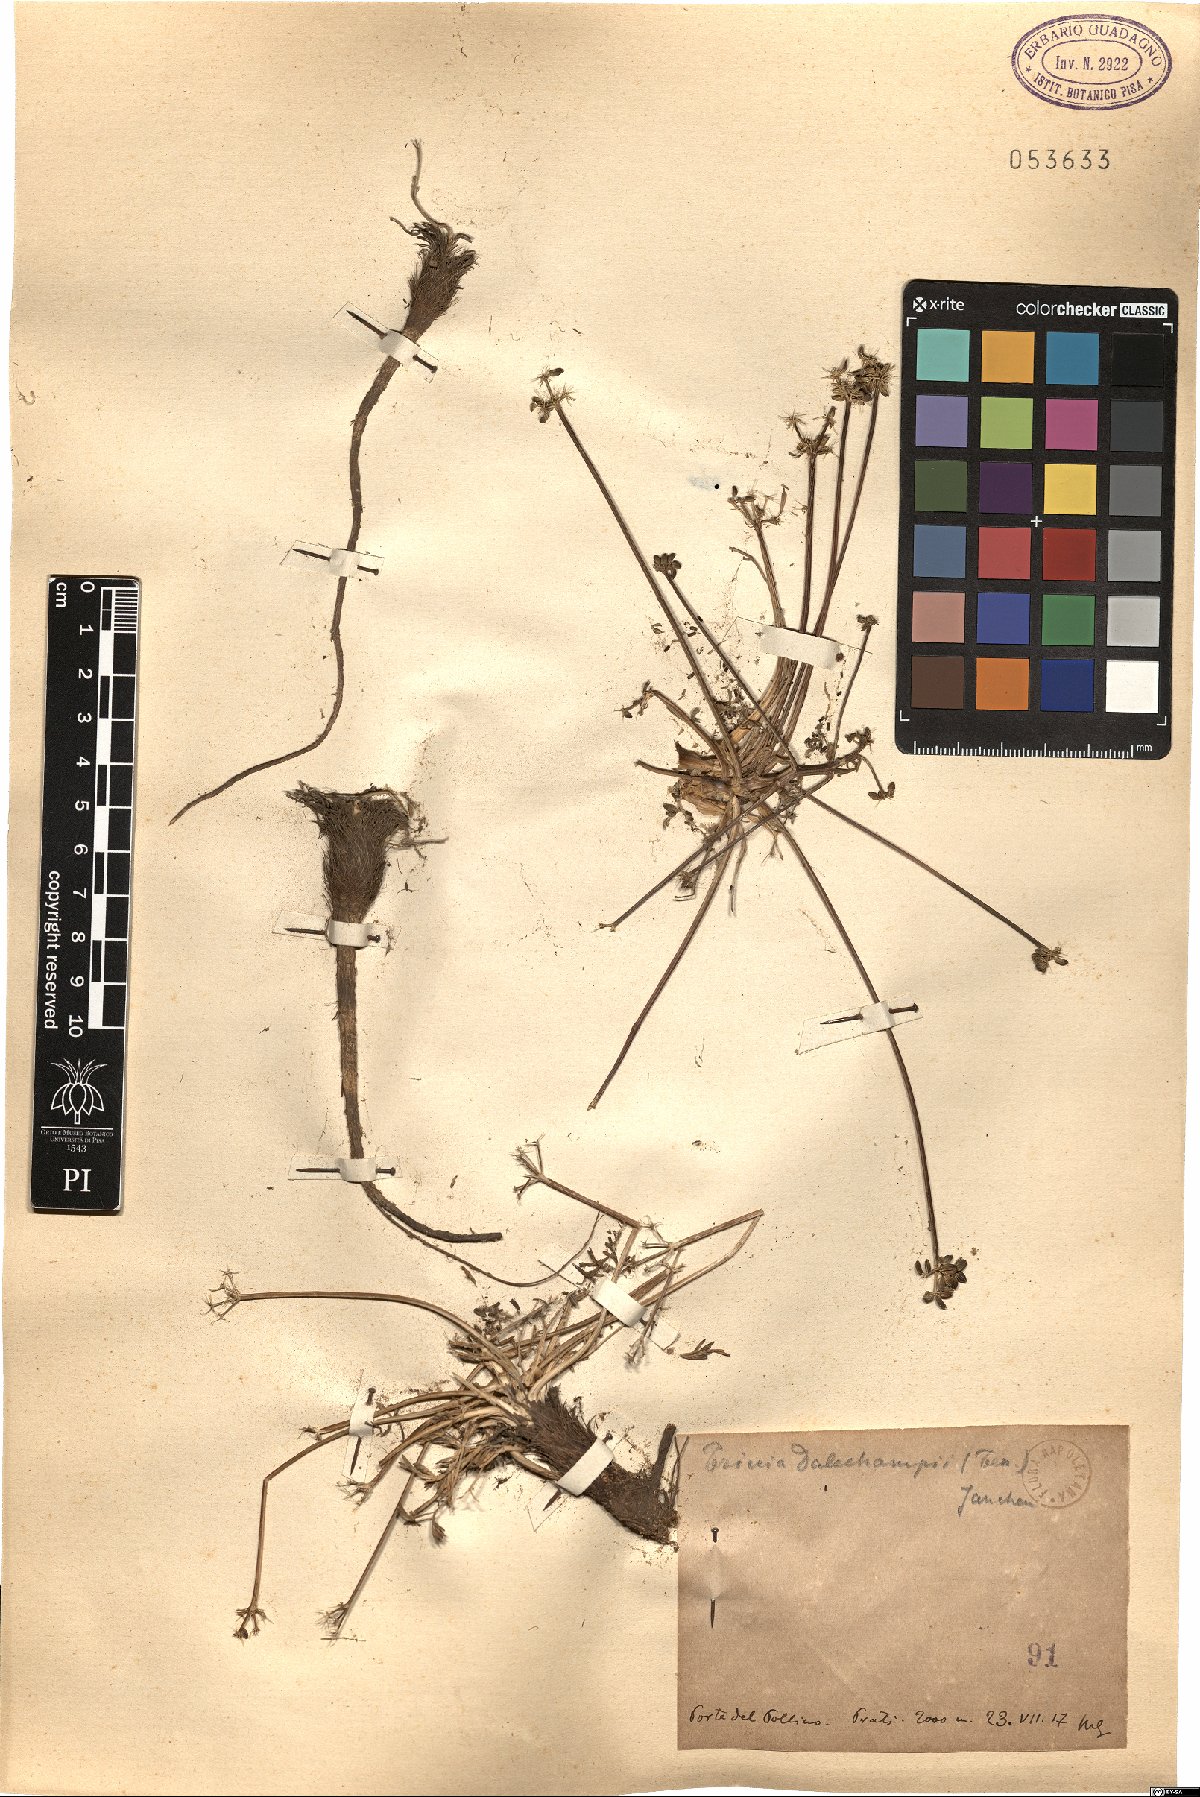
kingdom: Plantae
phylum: Tracheophyta
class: Magnoliopsida
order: Apiales
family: Apiaceae
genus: Trinia
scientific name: Trinia dalechampii
